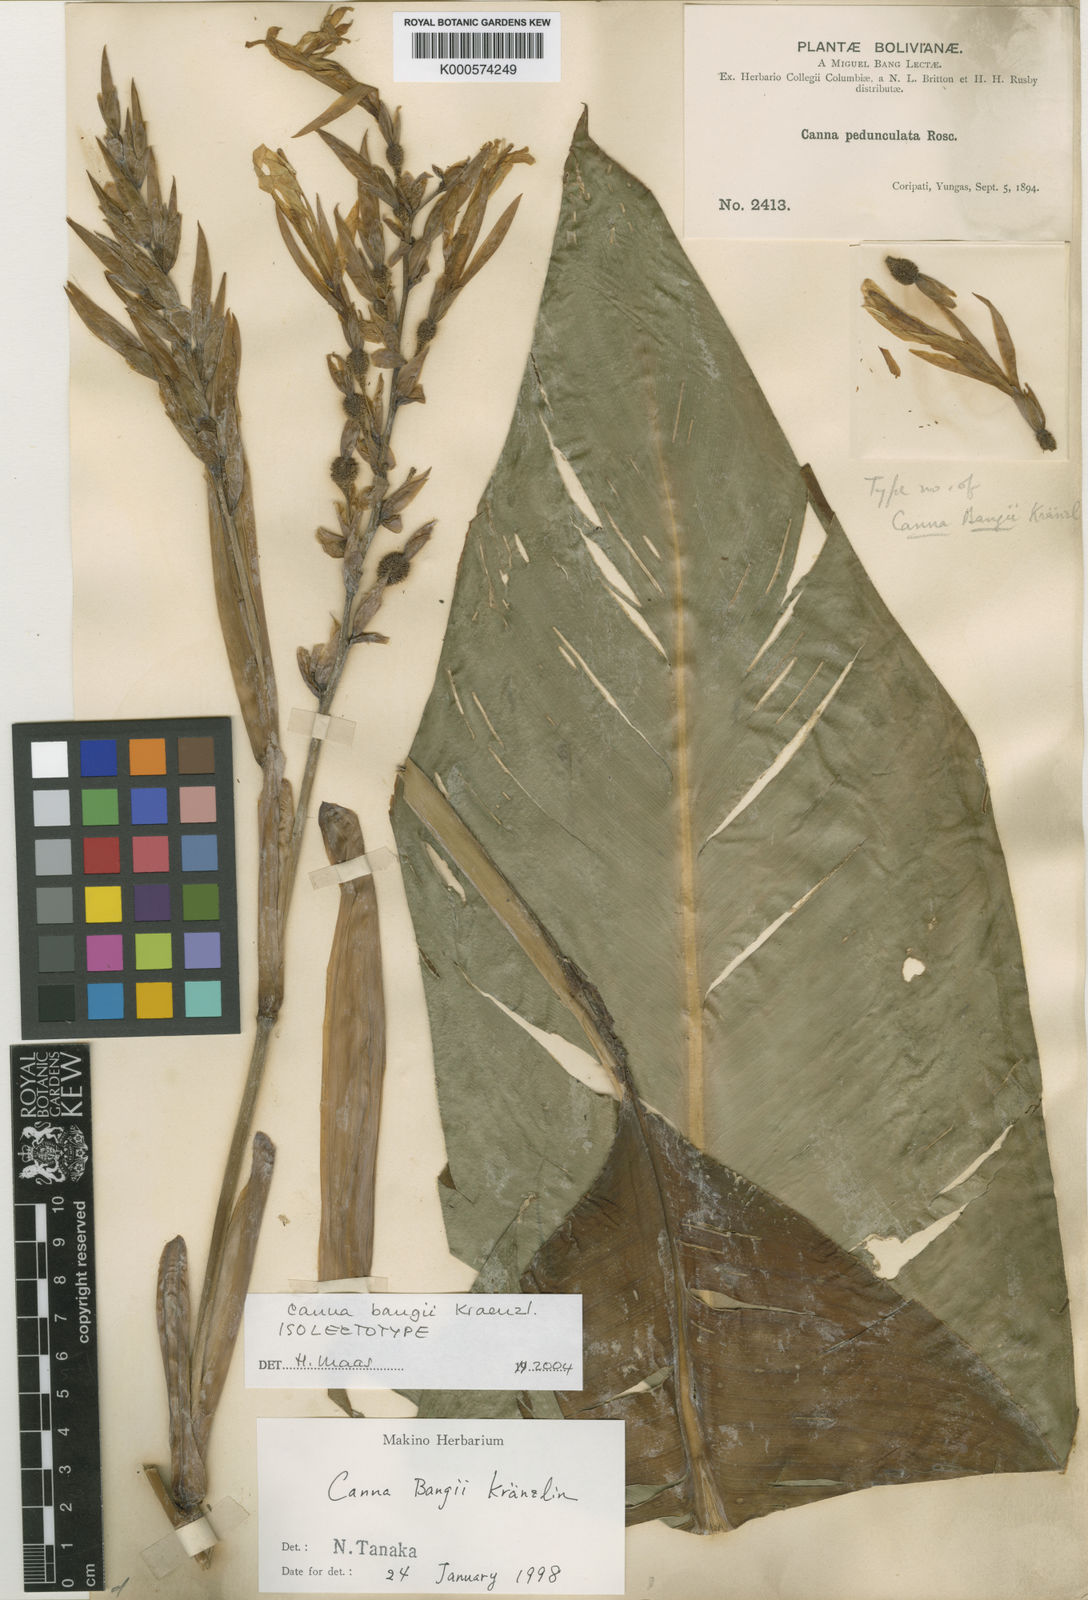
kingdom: Plantae
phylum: Tracheophyta
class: Liliopsida
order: Zingiberales
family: Cannaceae
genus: Canna
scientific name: Canna bangii
